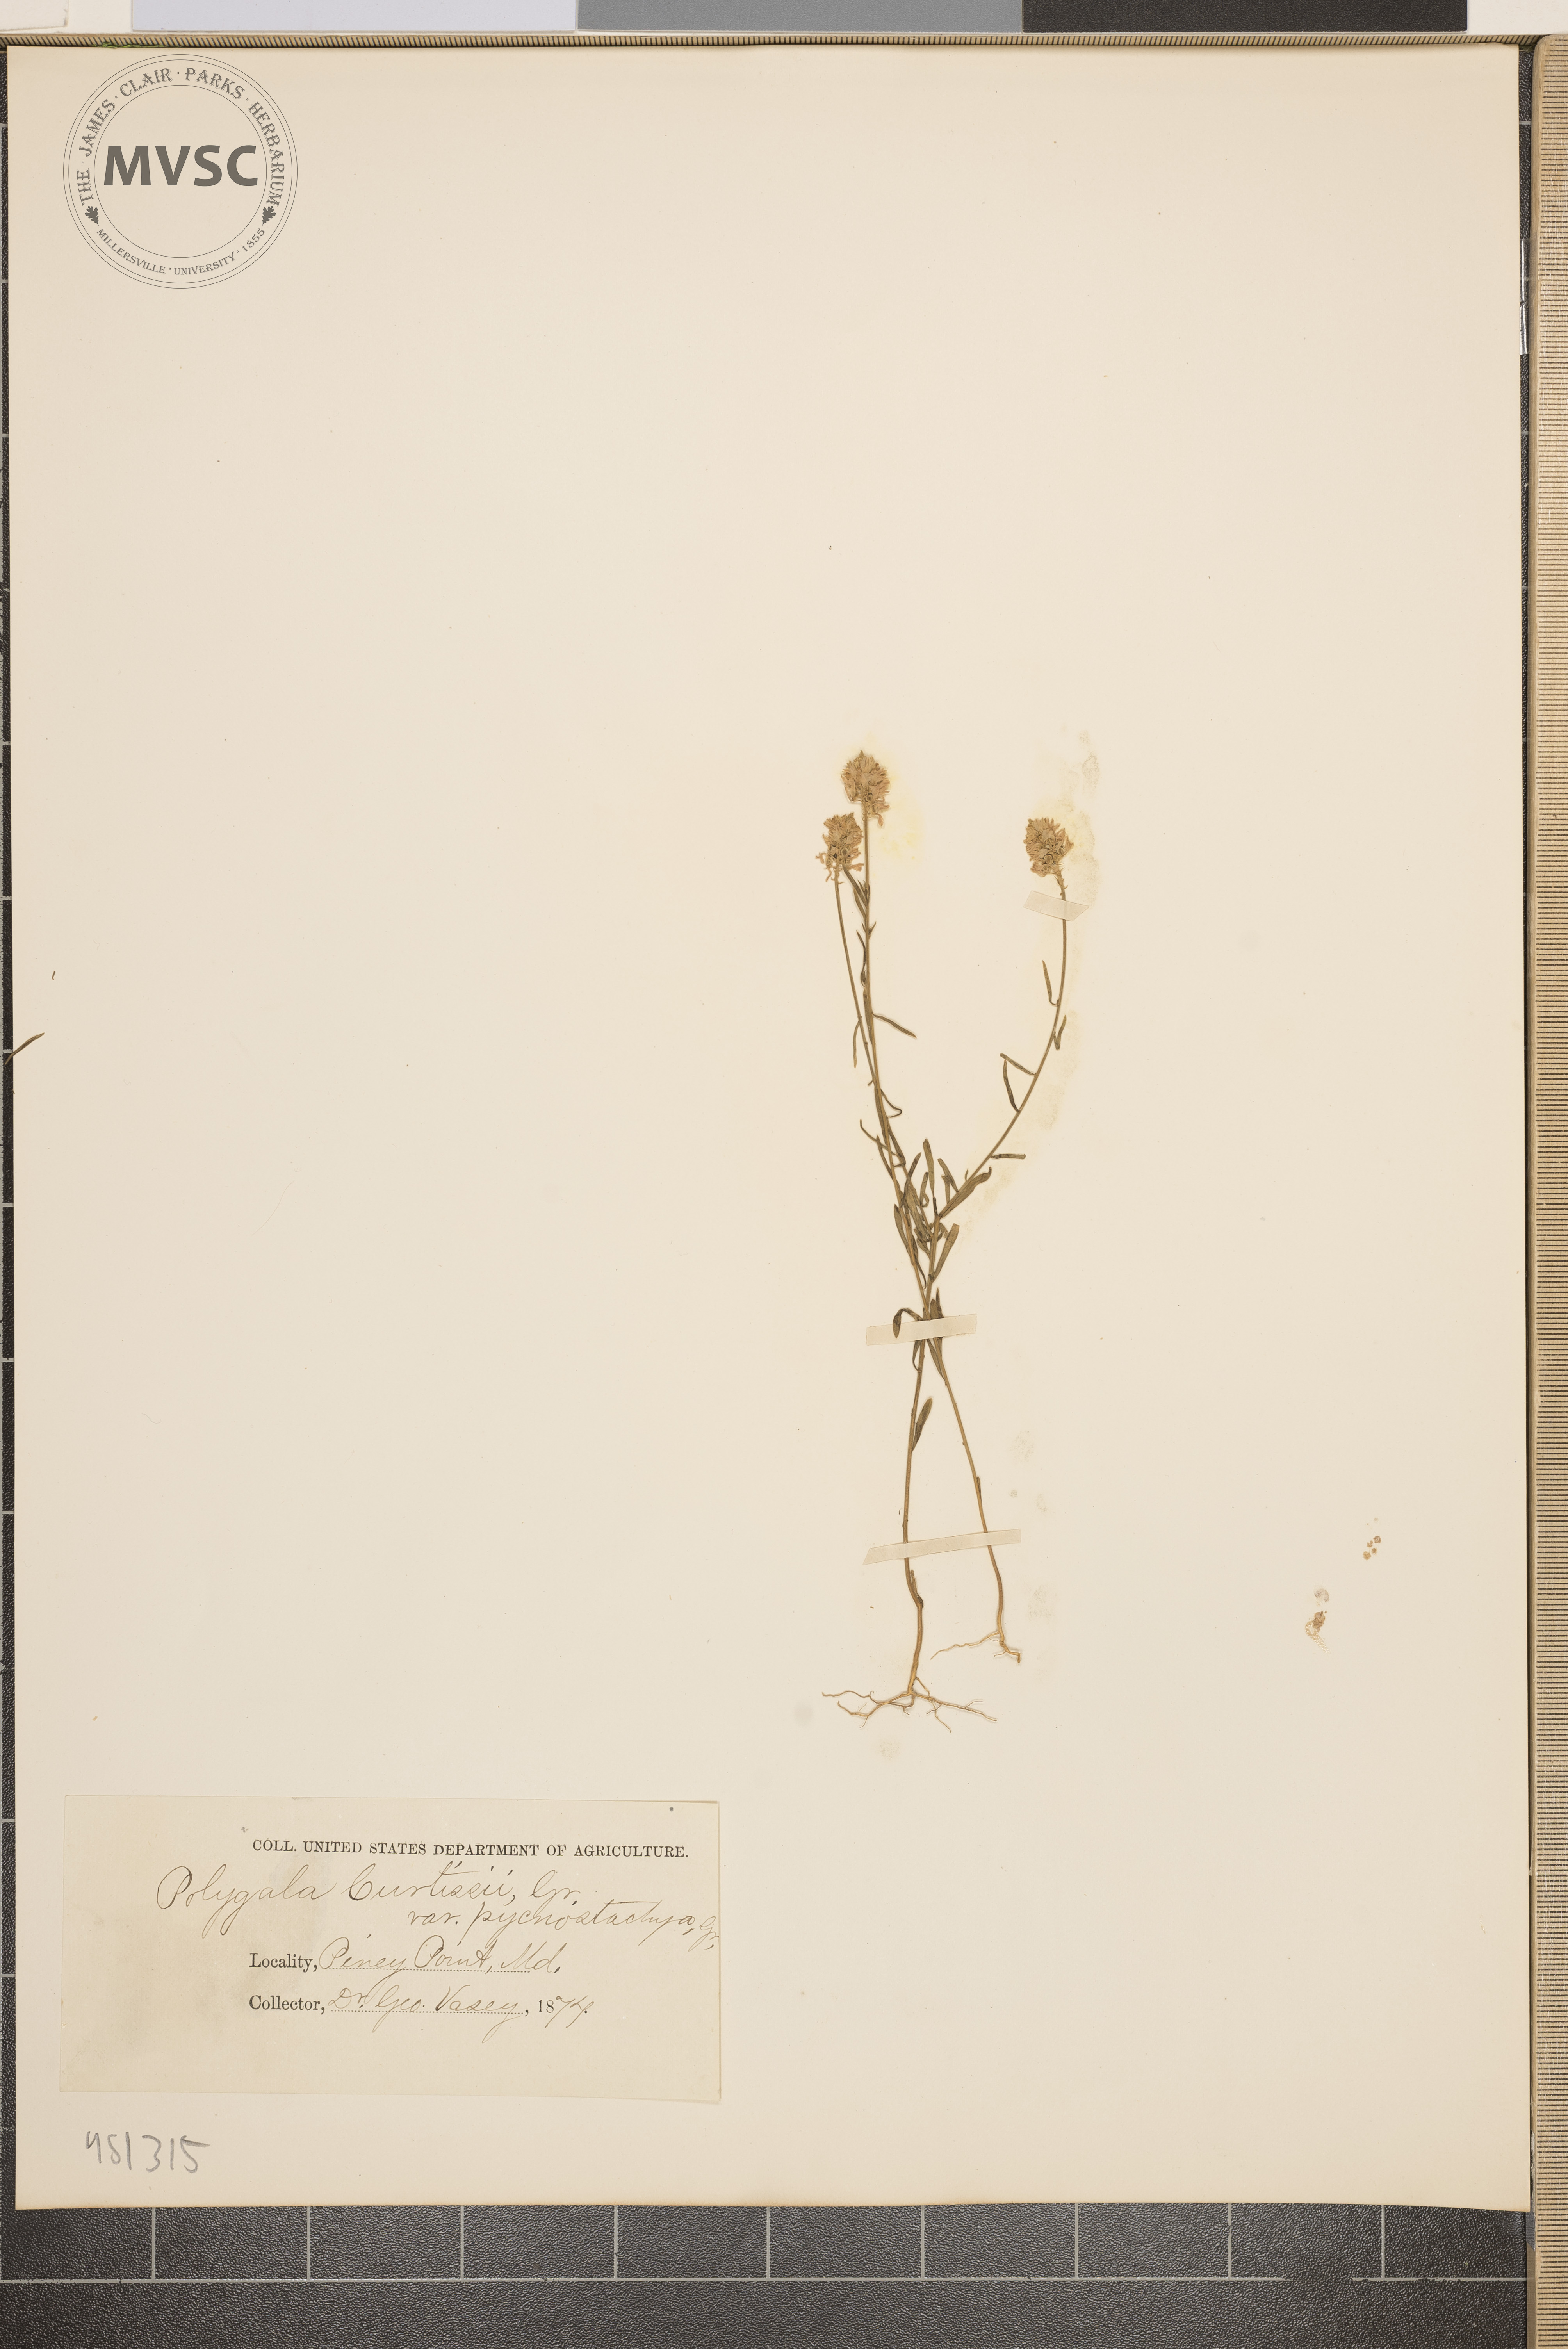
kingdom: Plantae
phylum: Tracheophyta
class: Magnoliopsida
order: Fabales
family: Polygalaceae
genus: Polygala
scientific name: Polygala curtissii
